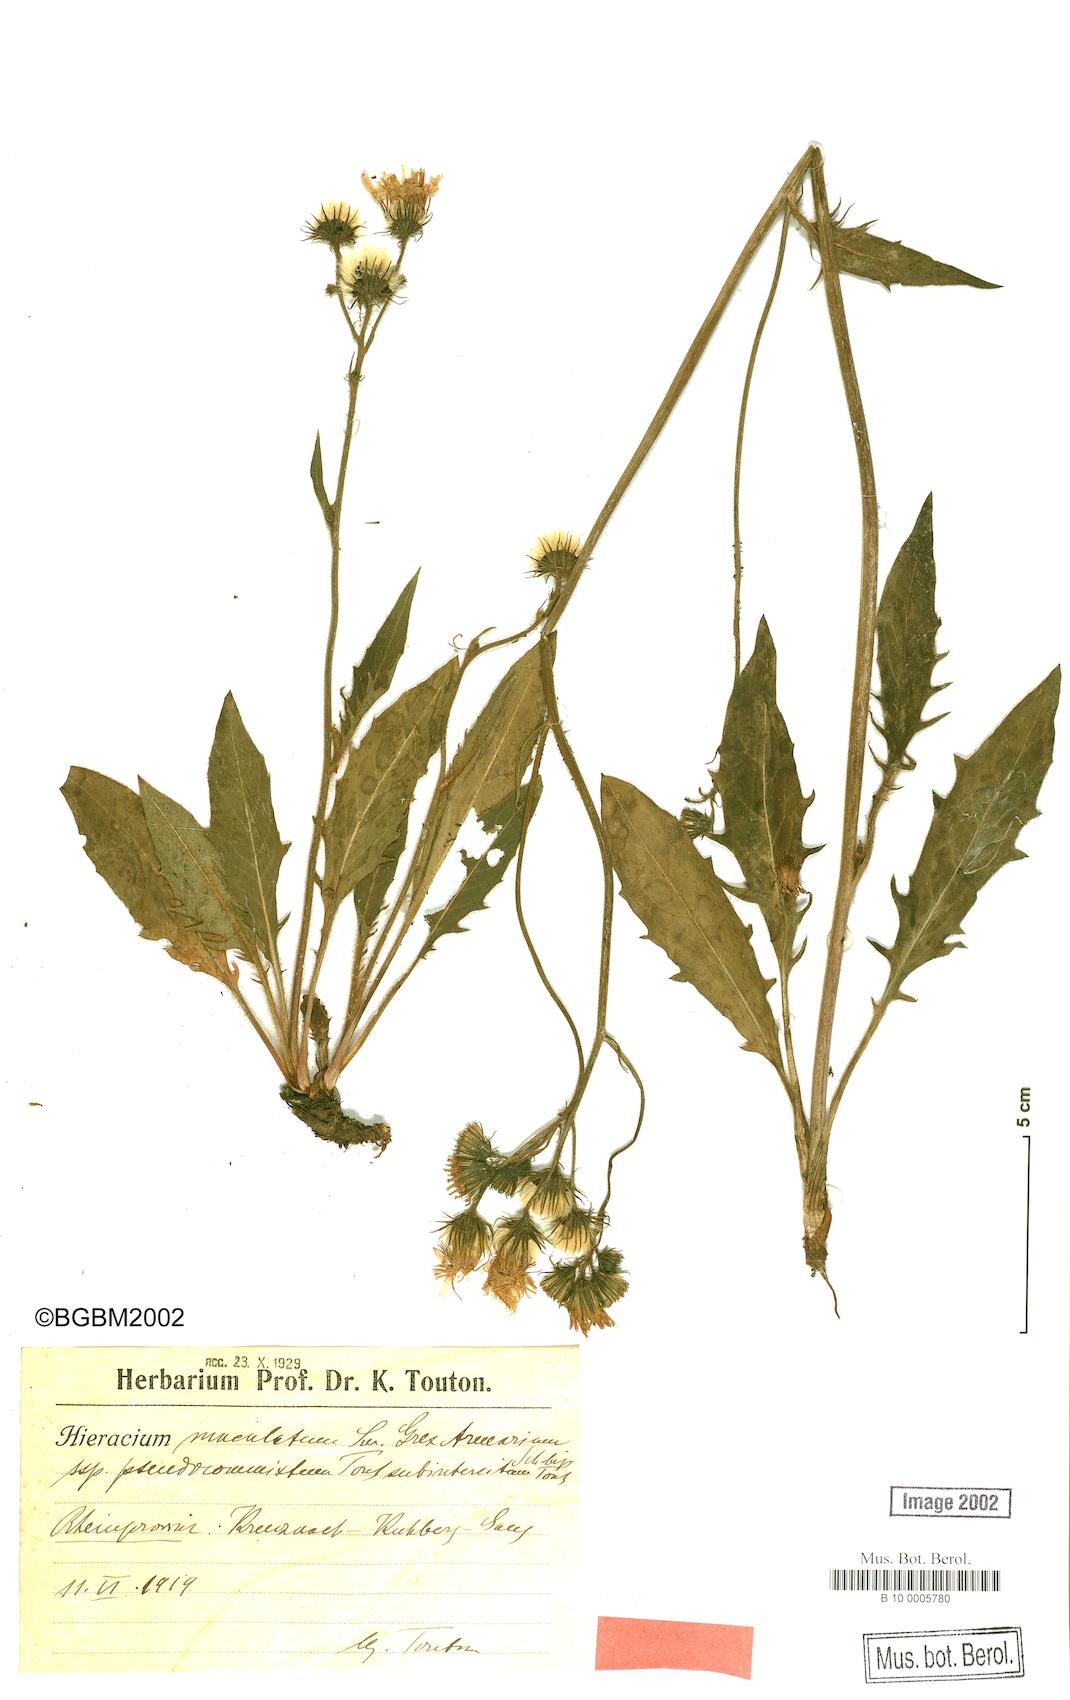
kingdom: Plantae
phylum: Tracheophyta
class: Magnoliopsida
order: Asterales
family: Asteraceae
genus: Hieracium
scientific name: Hieracium maculatum
